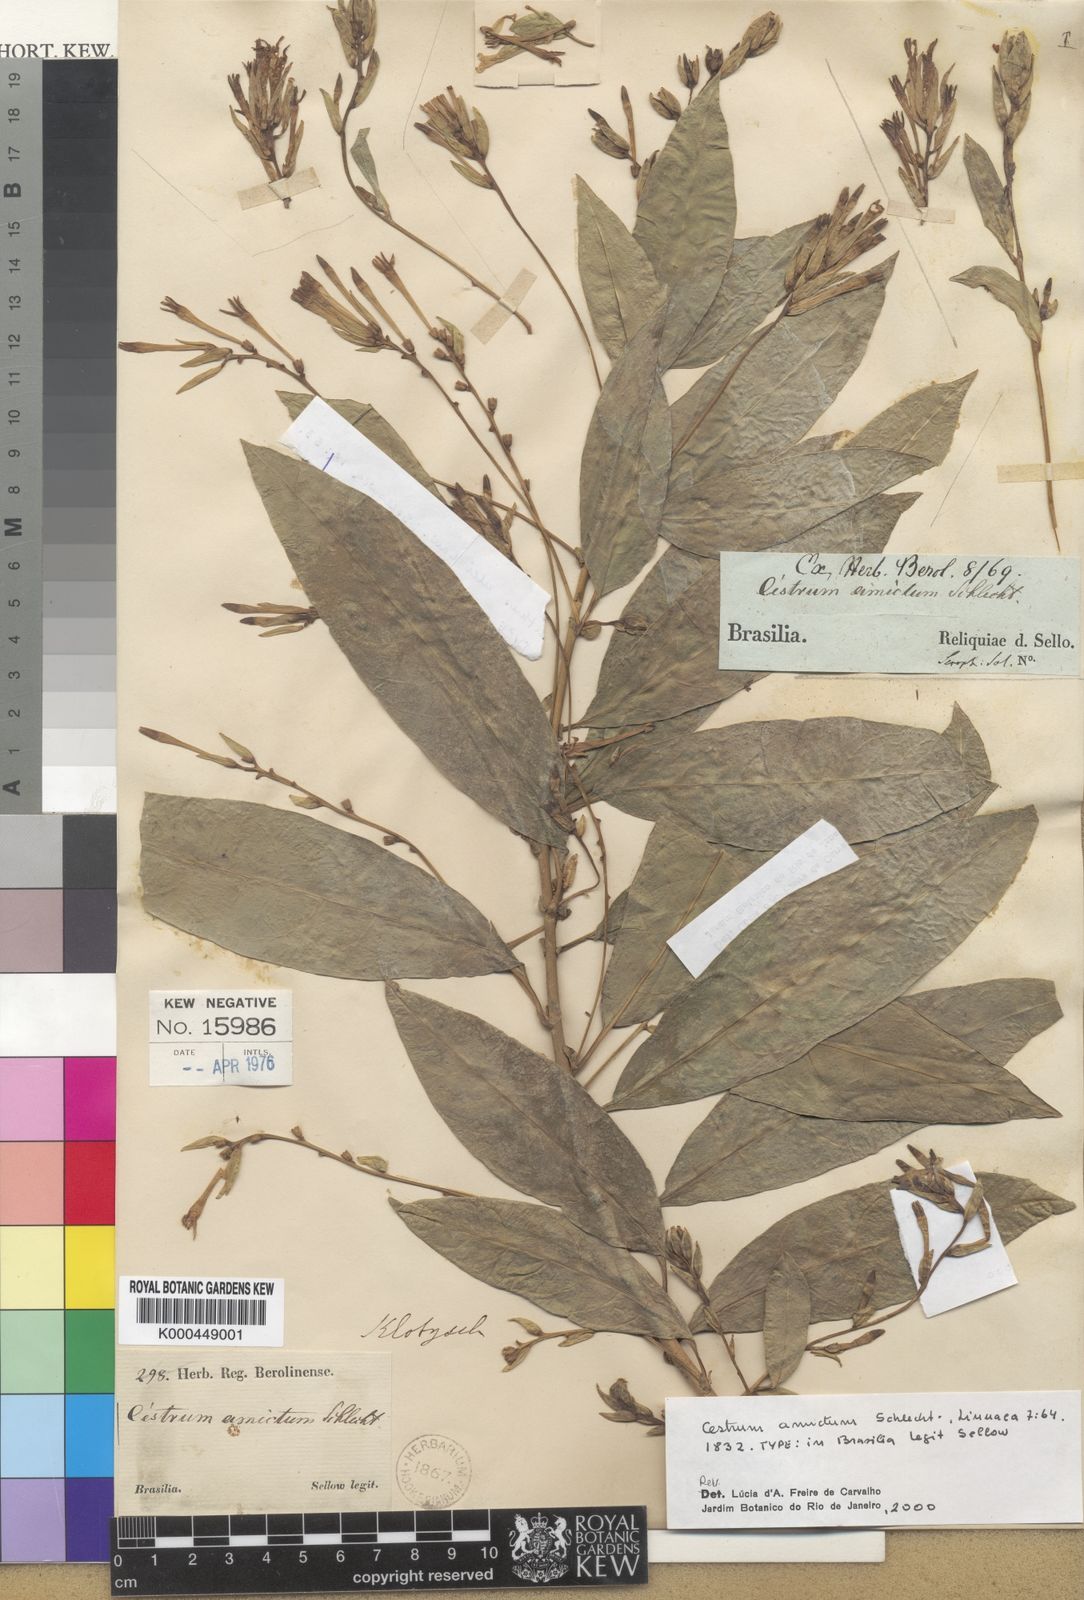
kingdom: Plantae
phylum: Tracheophyta
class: Magnoliopsida
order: Solanales
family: Solanaceae
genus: Cestrum
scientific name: Cestrum bracteatum
